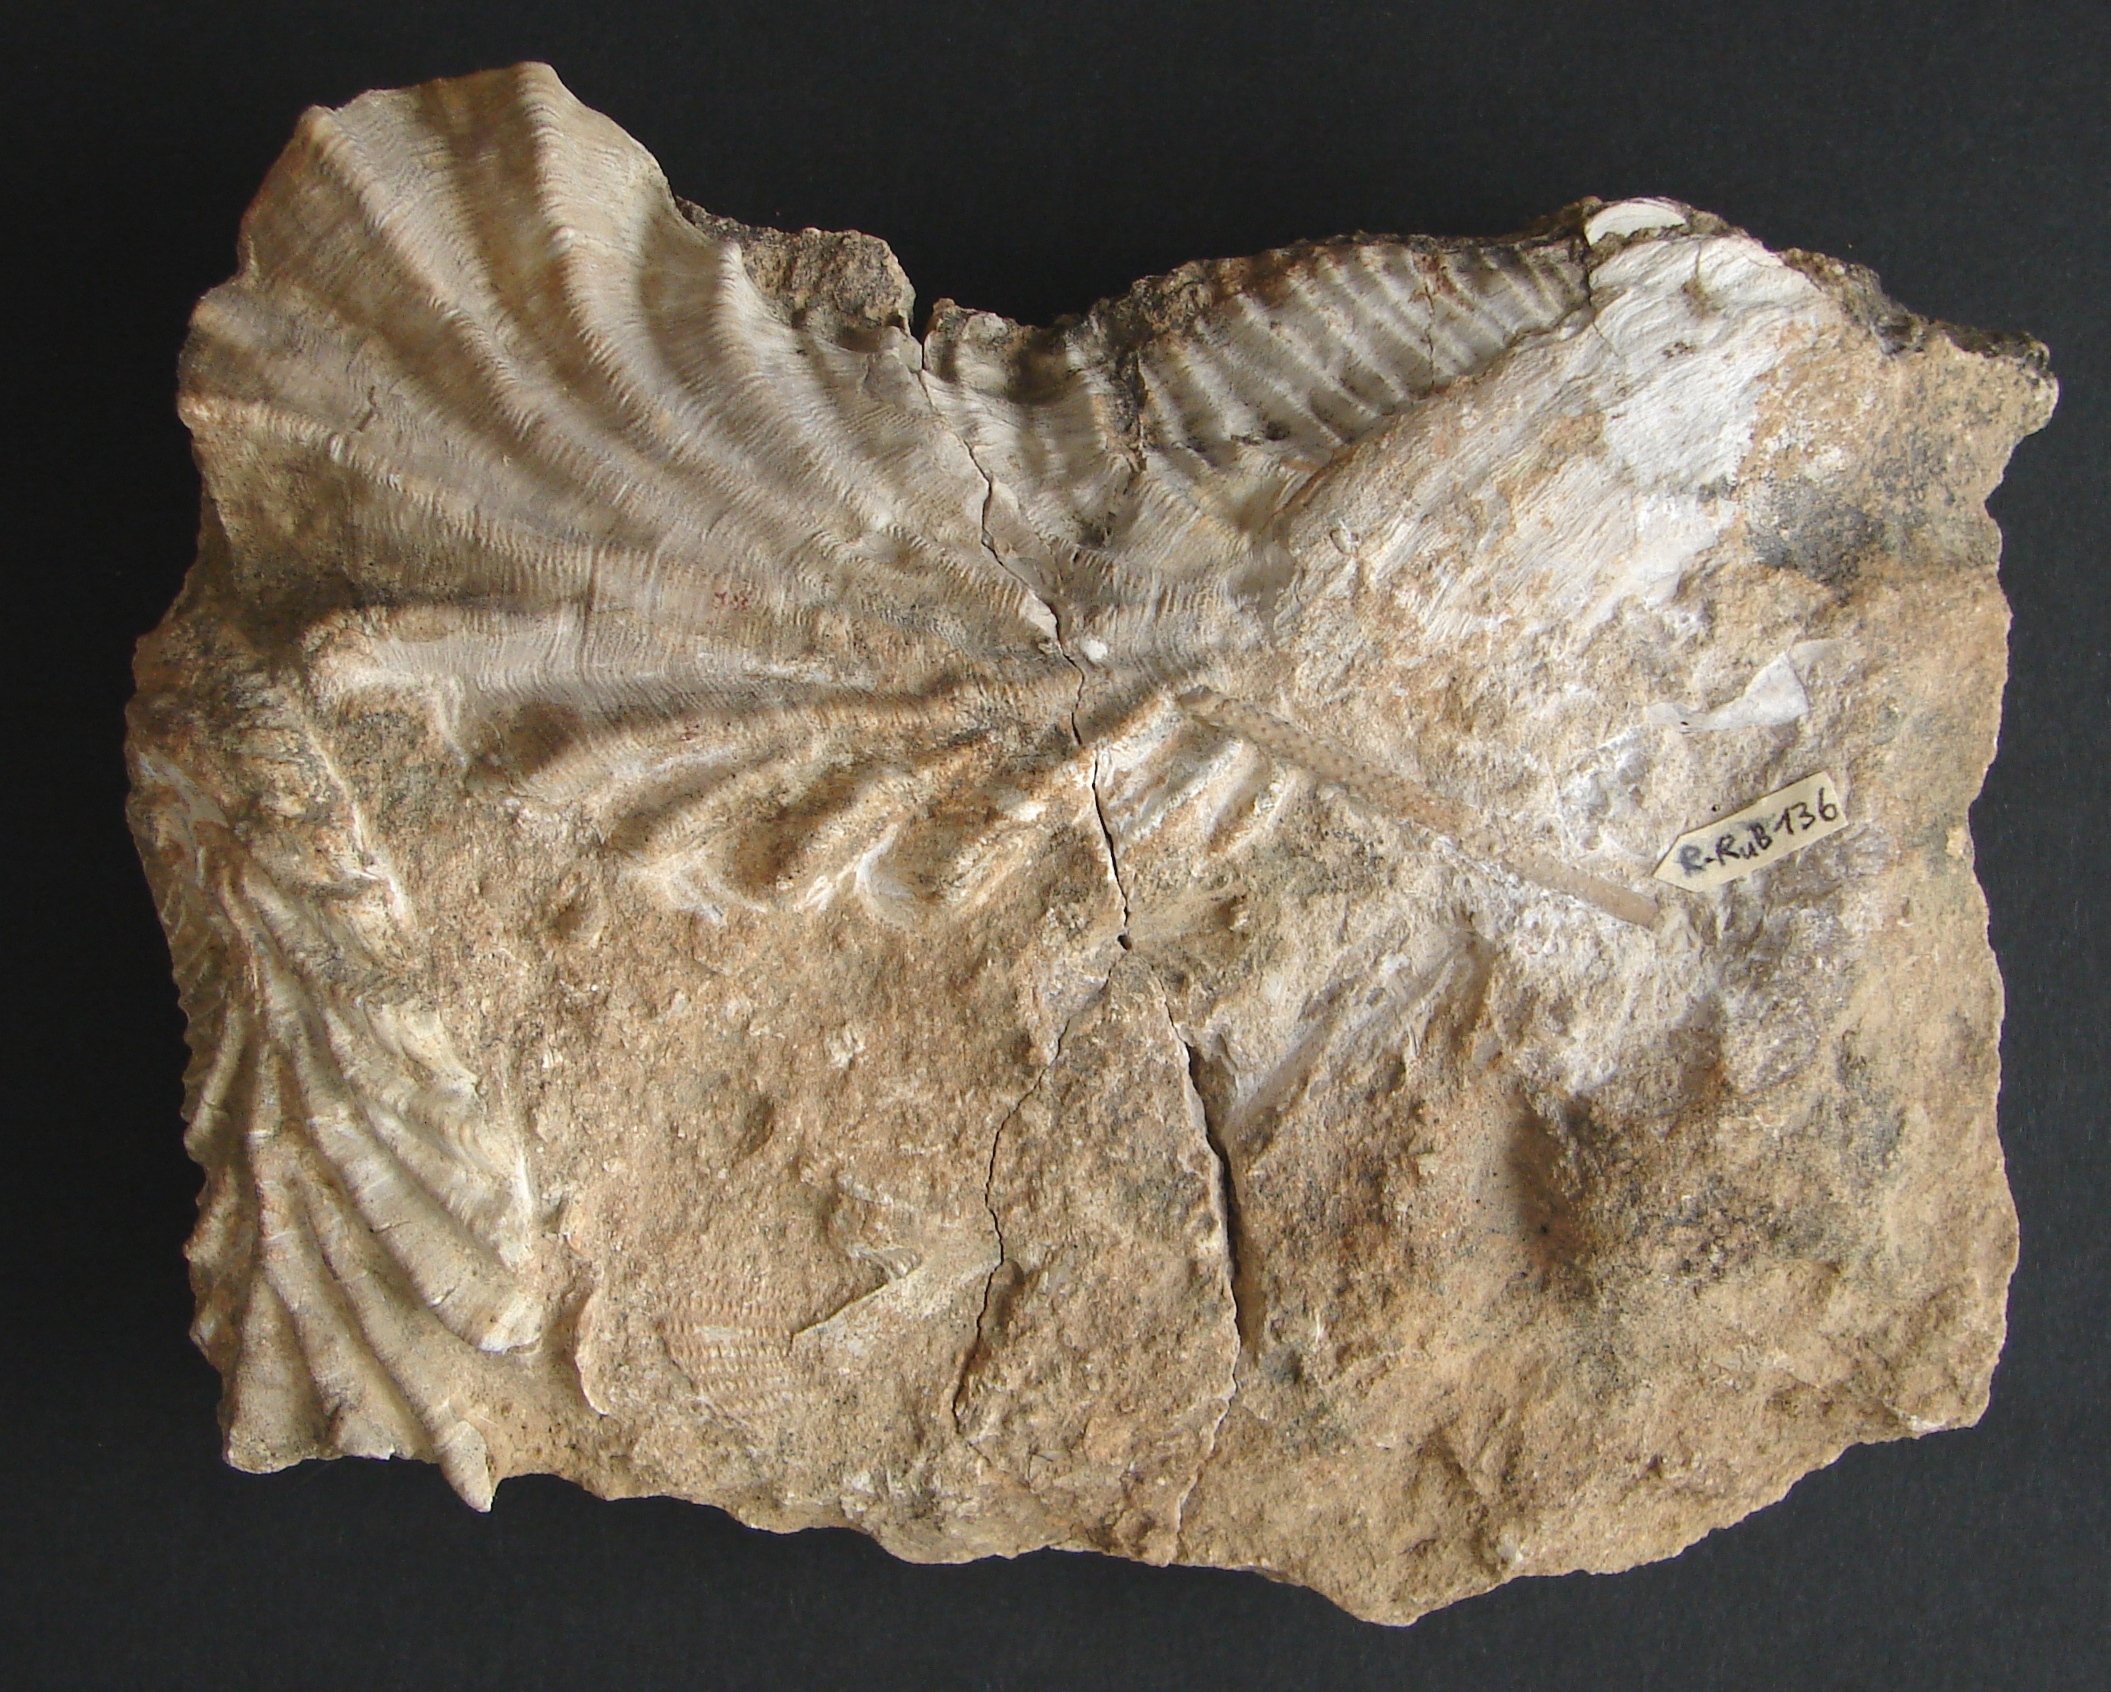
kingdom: Animalia
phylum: Echinodermata
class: Echinoidea
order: Cidaroida
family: Polycidaridae
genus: Anisocidaris
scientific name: Anisocidaris
